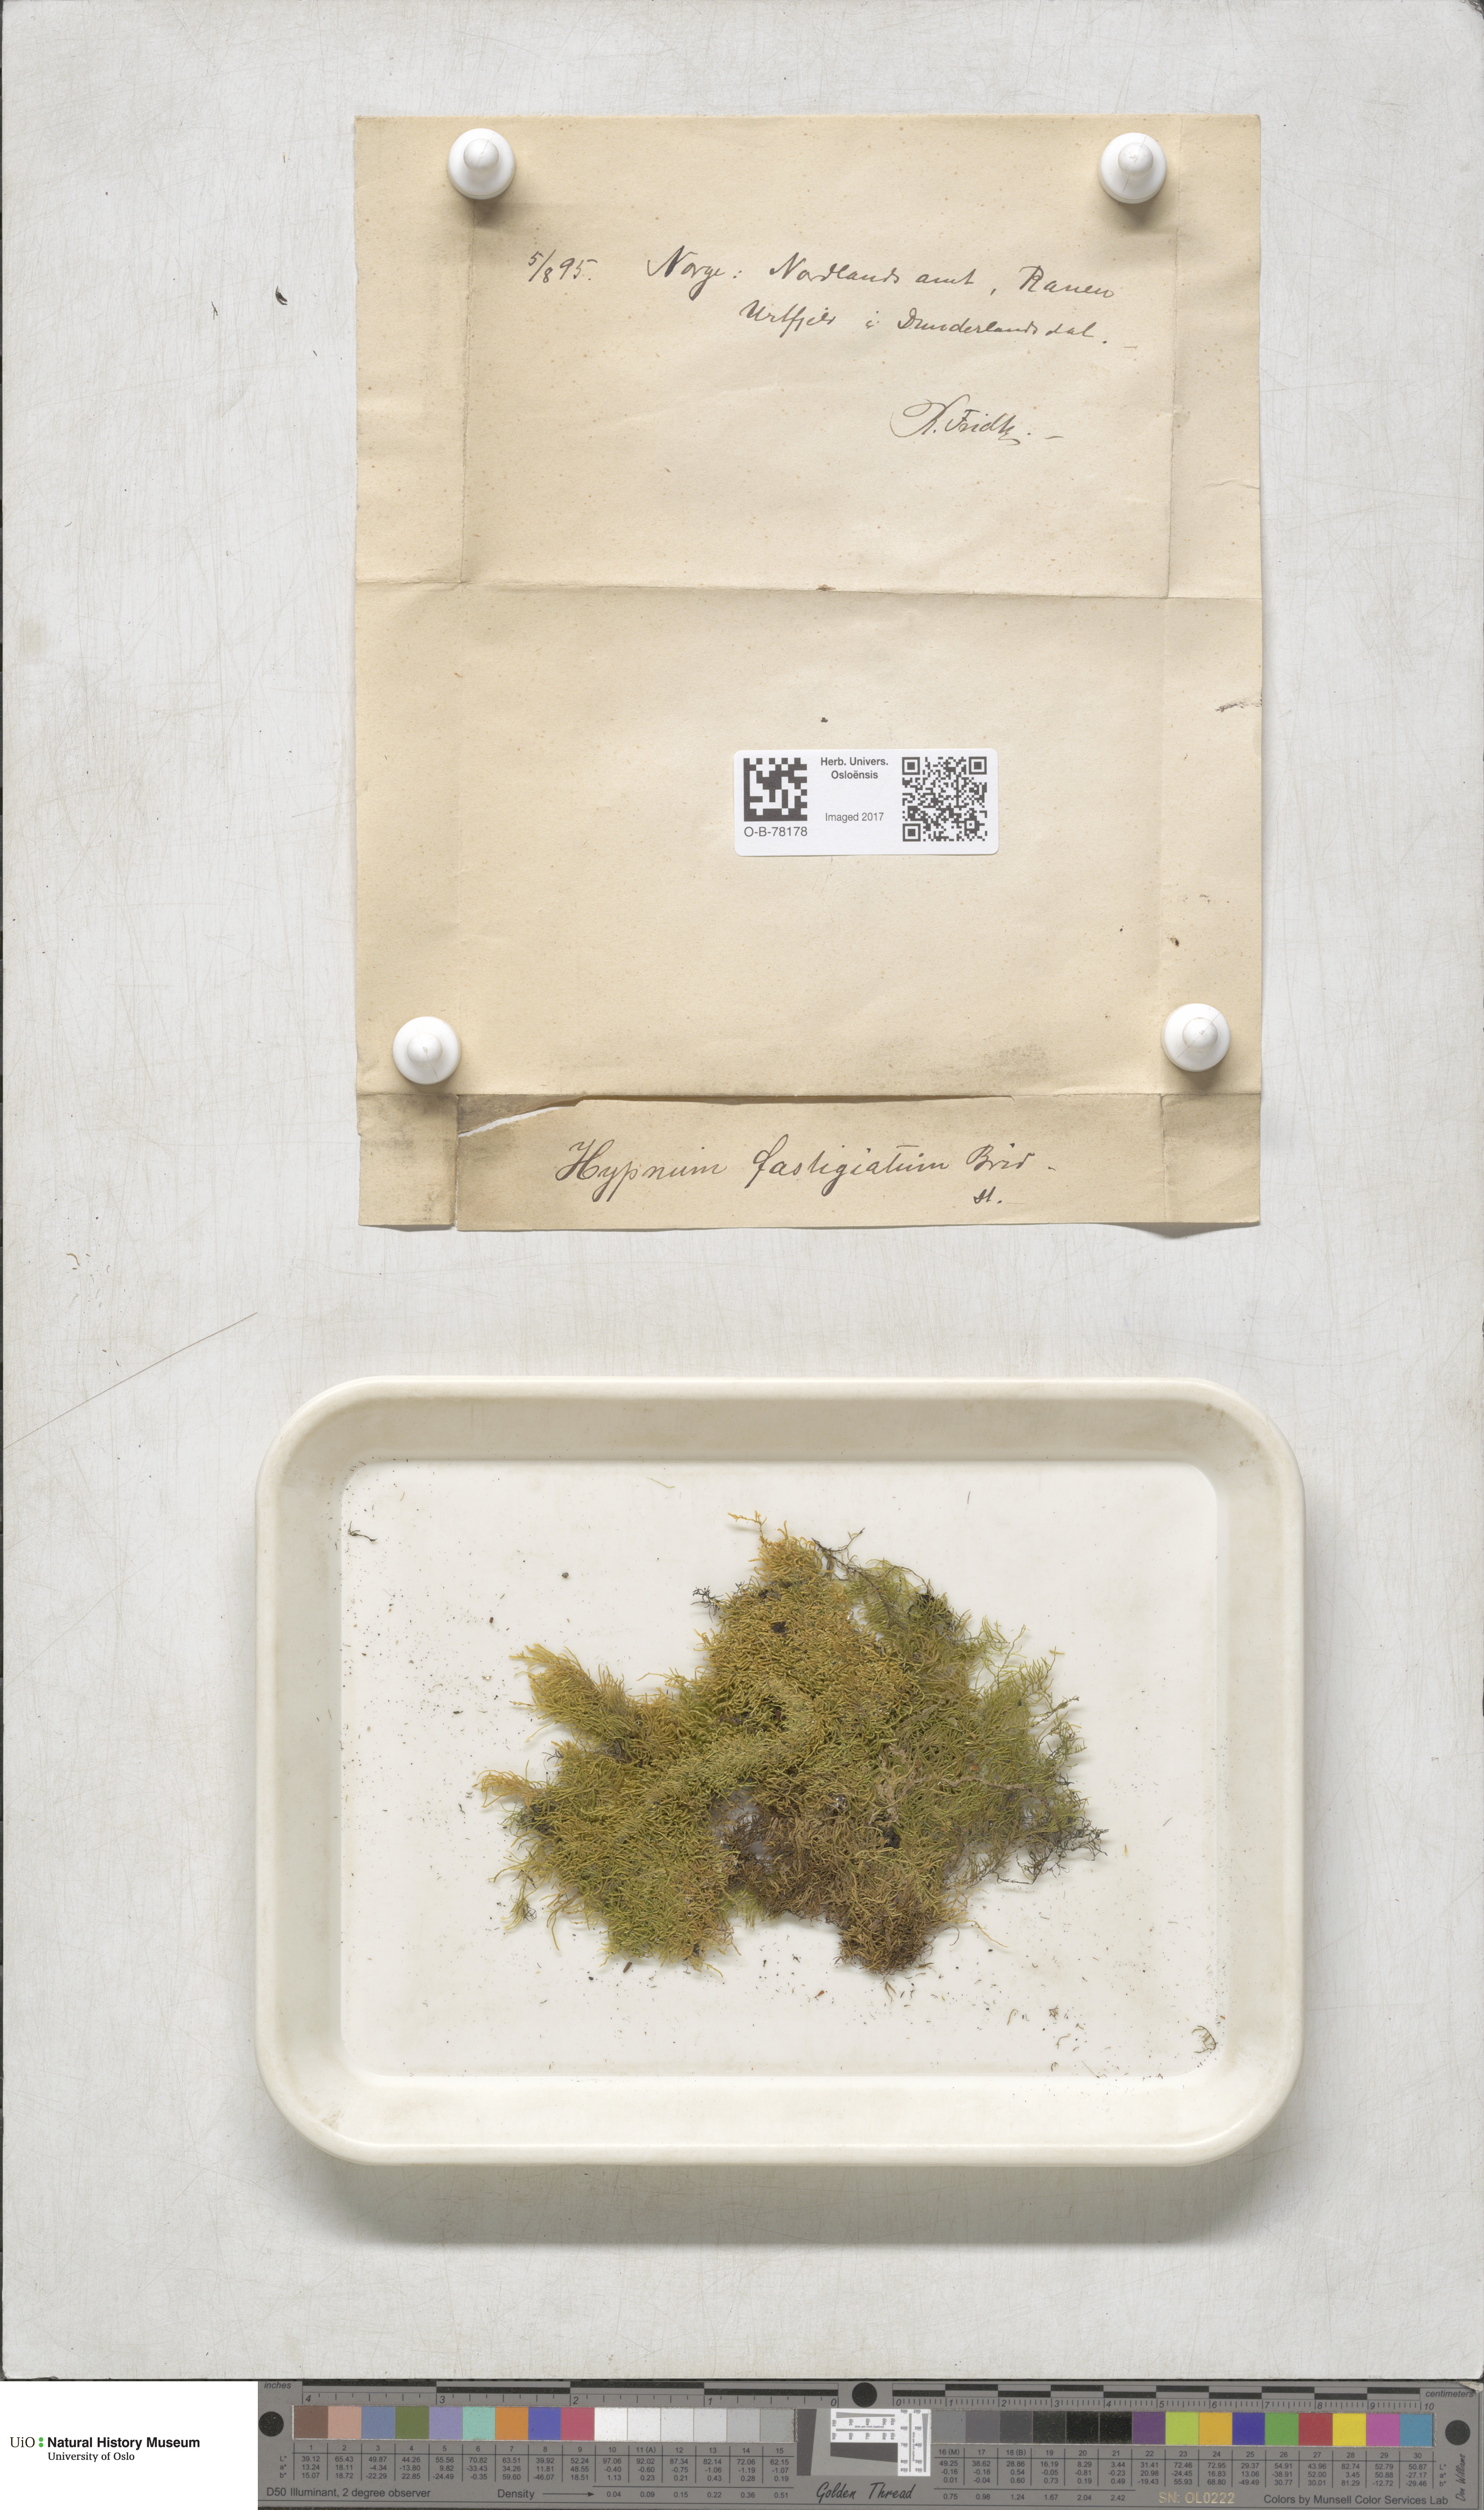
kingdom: Plantae
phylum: Bryophyta
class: Bryopsida
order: Hypnales
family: Amblystegiaceae
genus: Drepanium
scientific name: Drepanium fastigiatum
